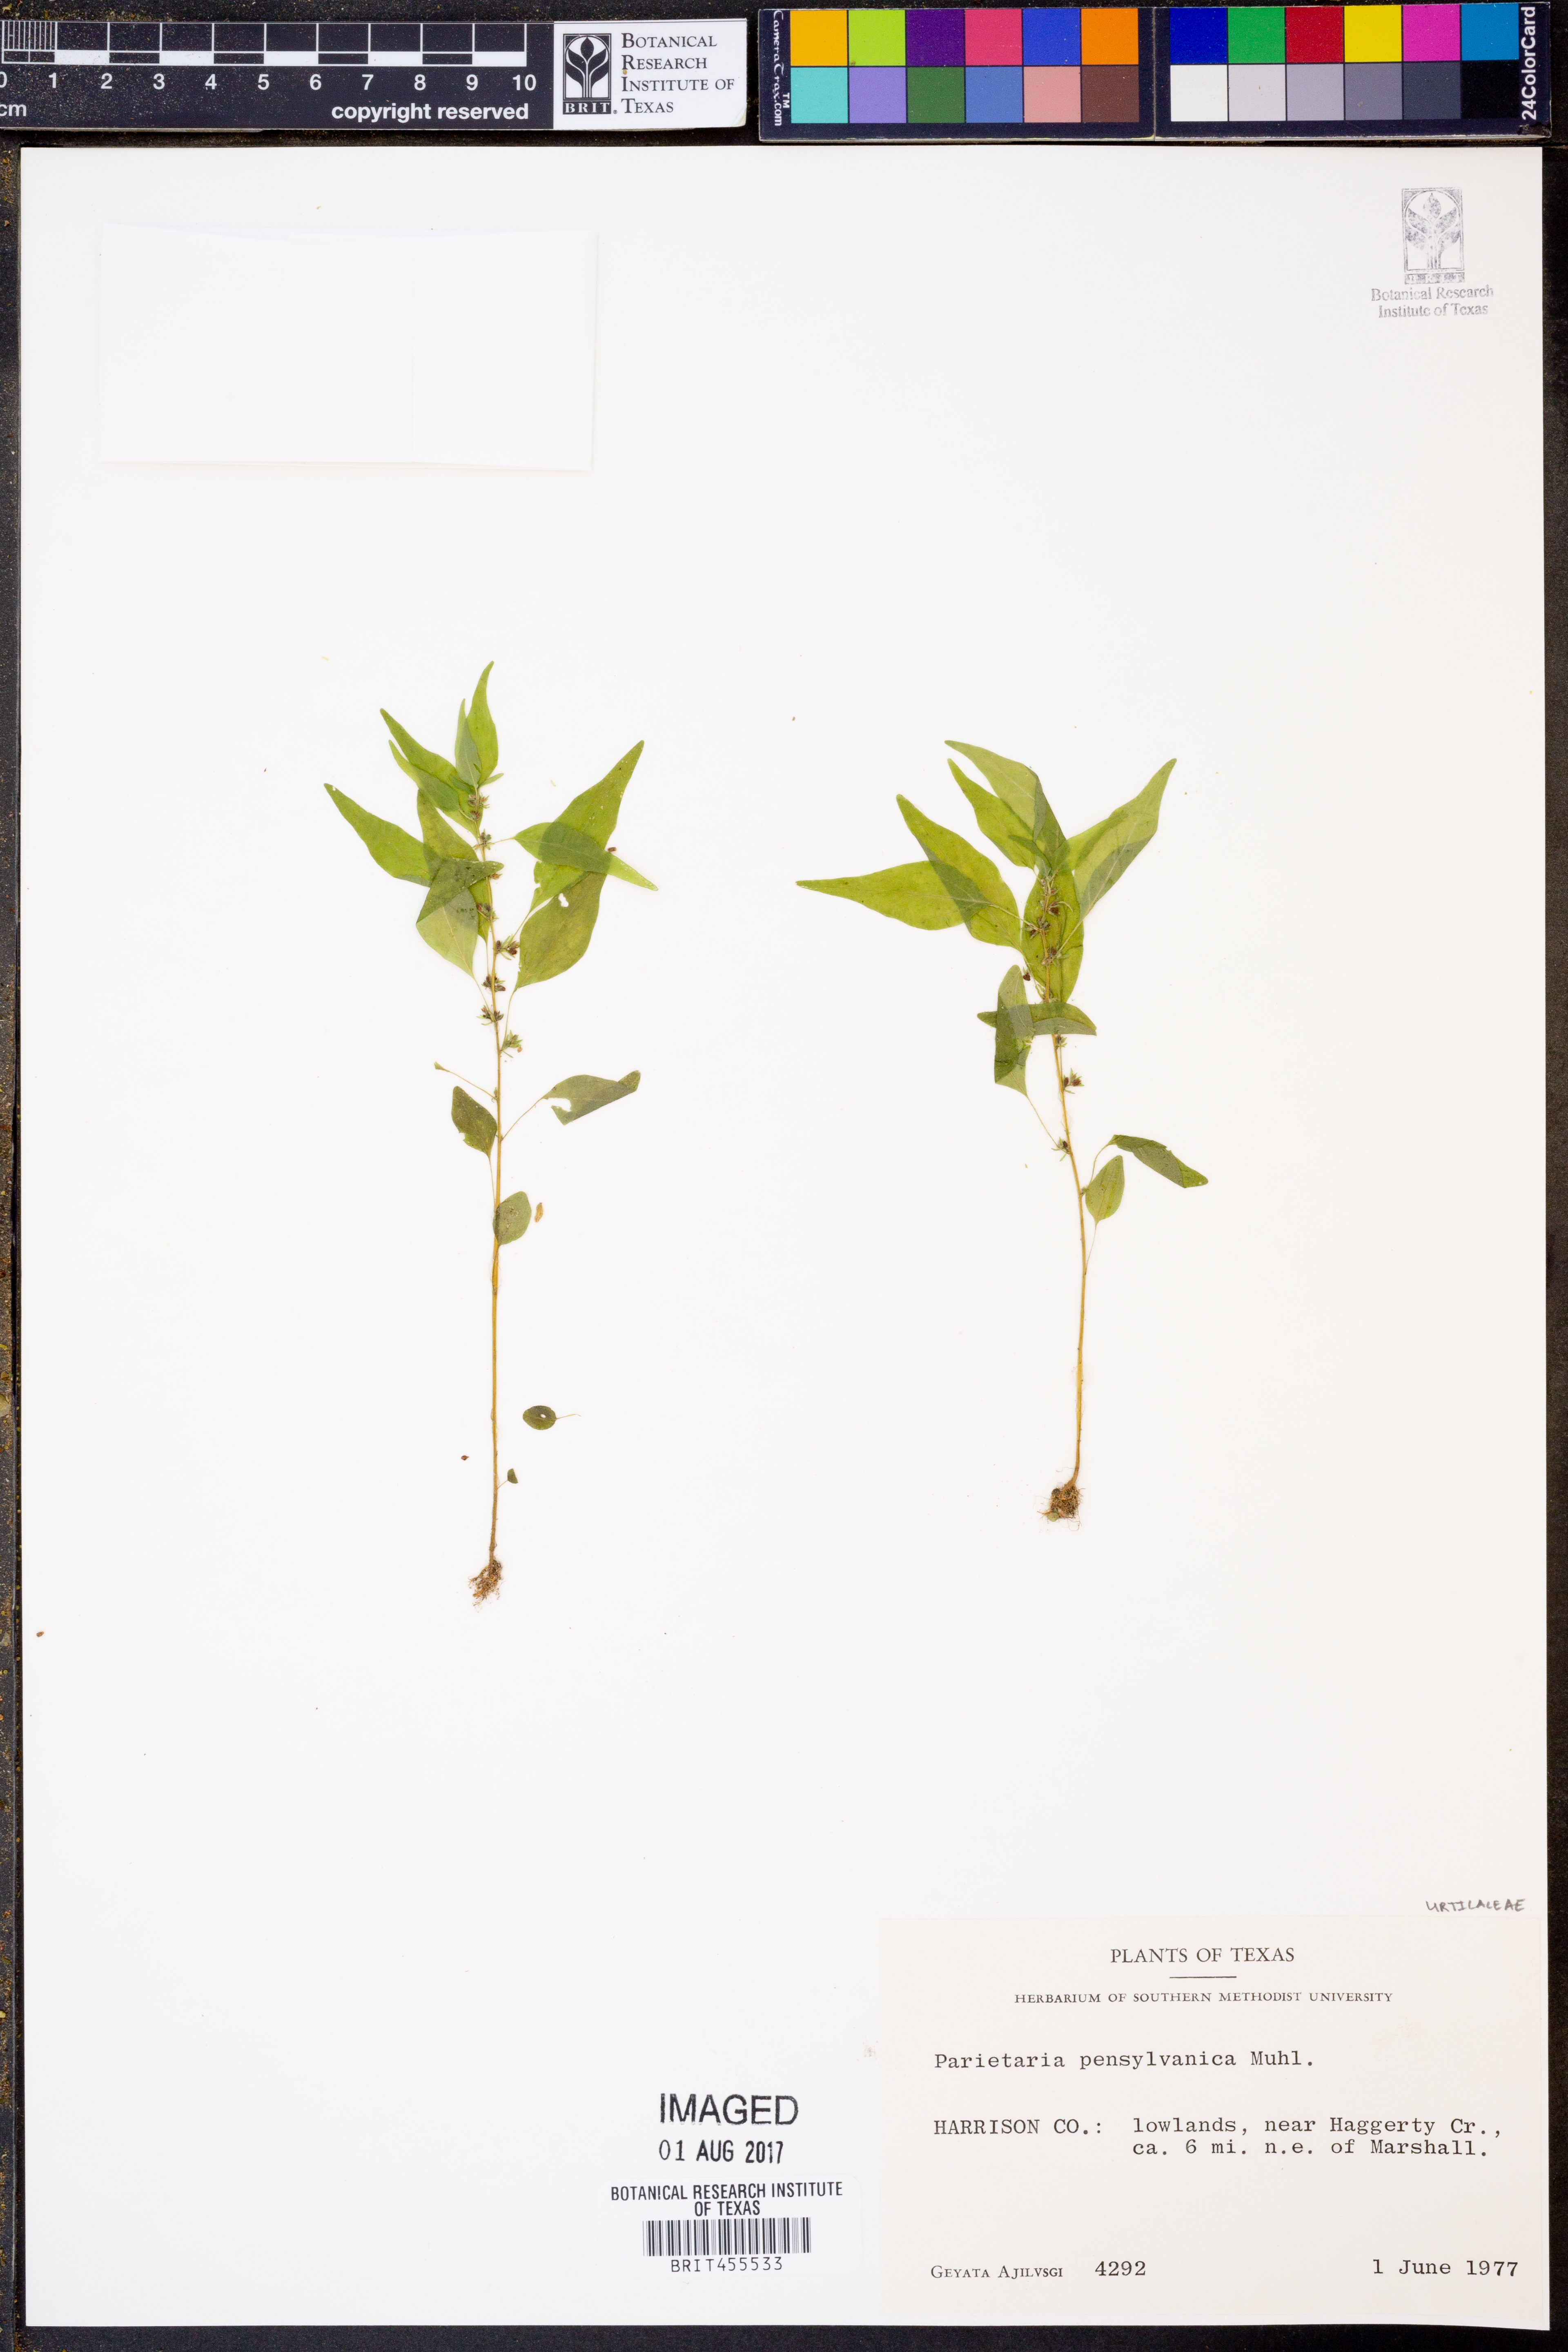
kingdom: Plantae
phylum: Tracheophyta
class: Magnoliopsida
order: Rosales
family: Urticaceae
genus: Parietaria
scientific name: Parietaria pensylvanica
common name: Pennsylvania pellitory
